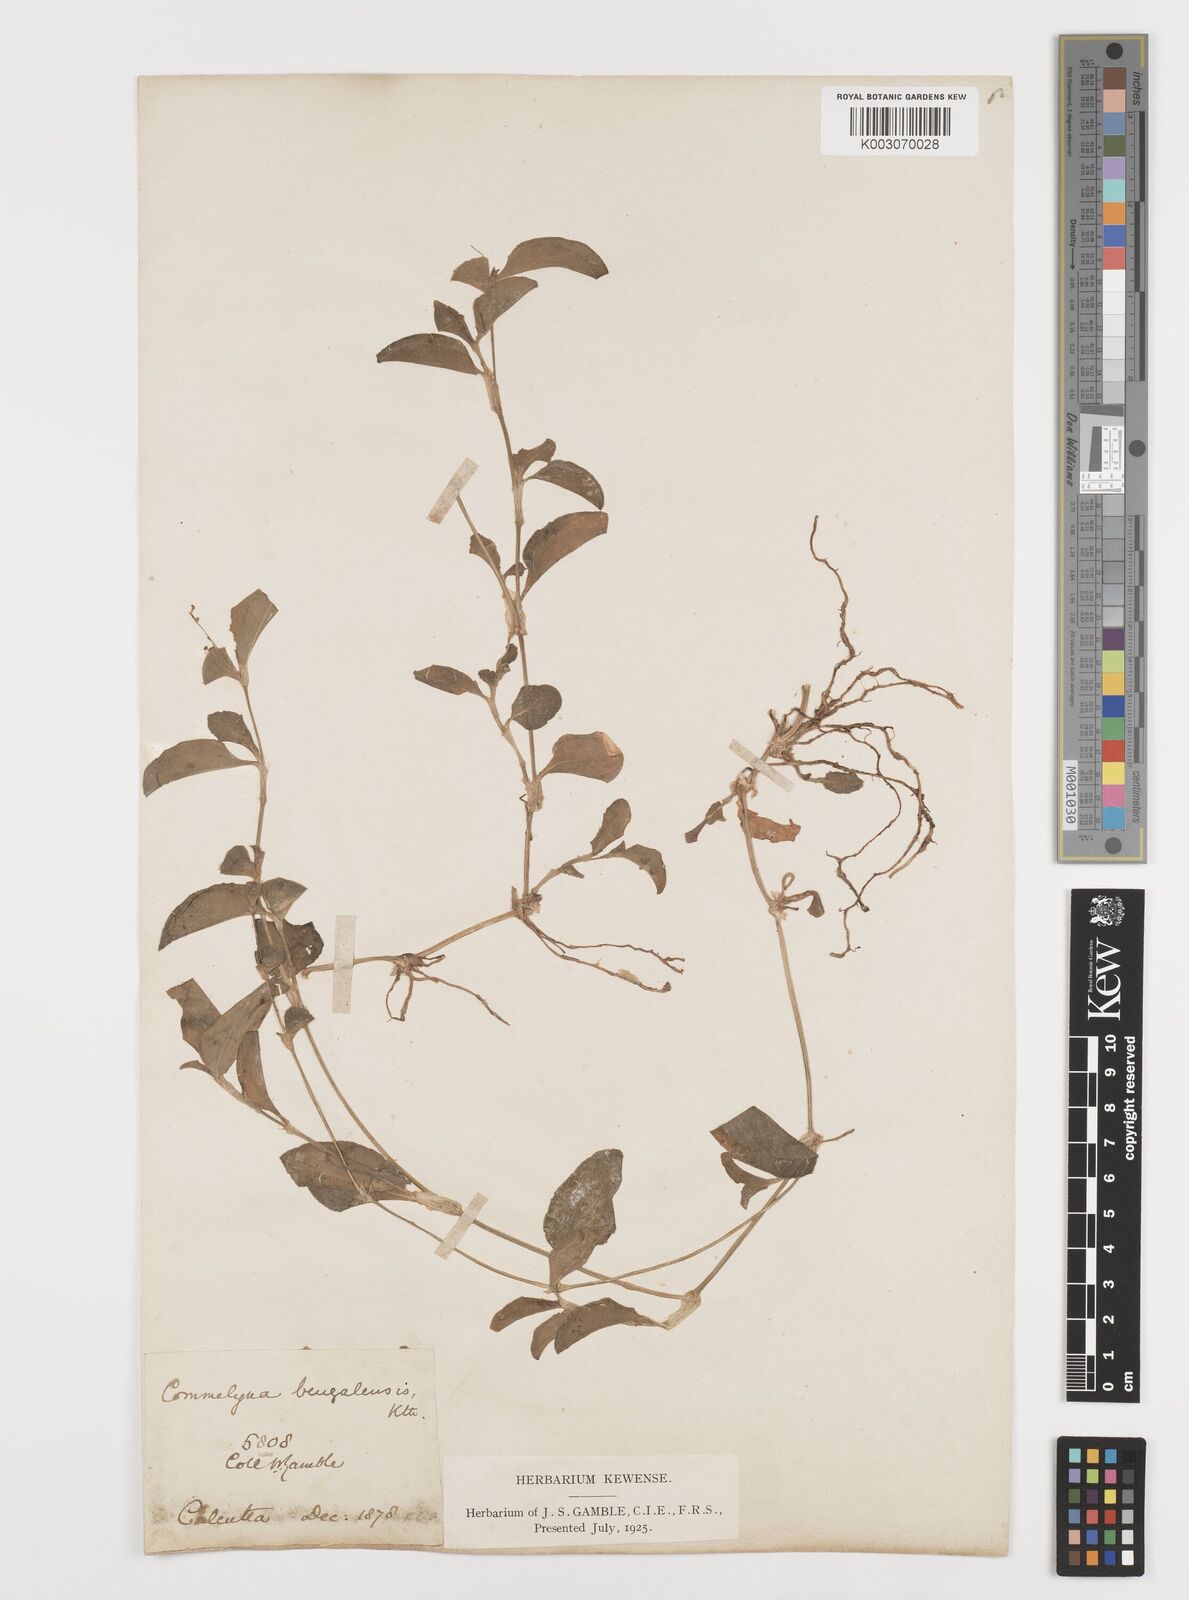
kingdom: Plantae
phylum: Tracheophyta
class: Liliopsida
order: Commelinales
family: Commelinaceae
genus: Commelina
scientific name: Commelina
